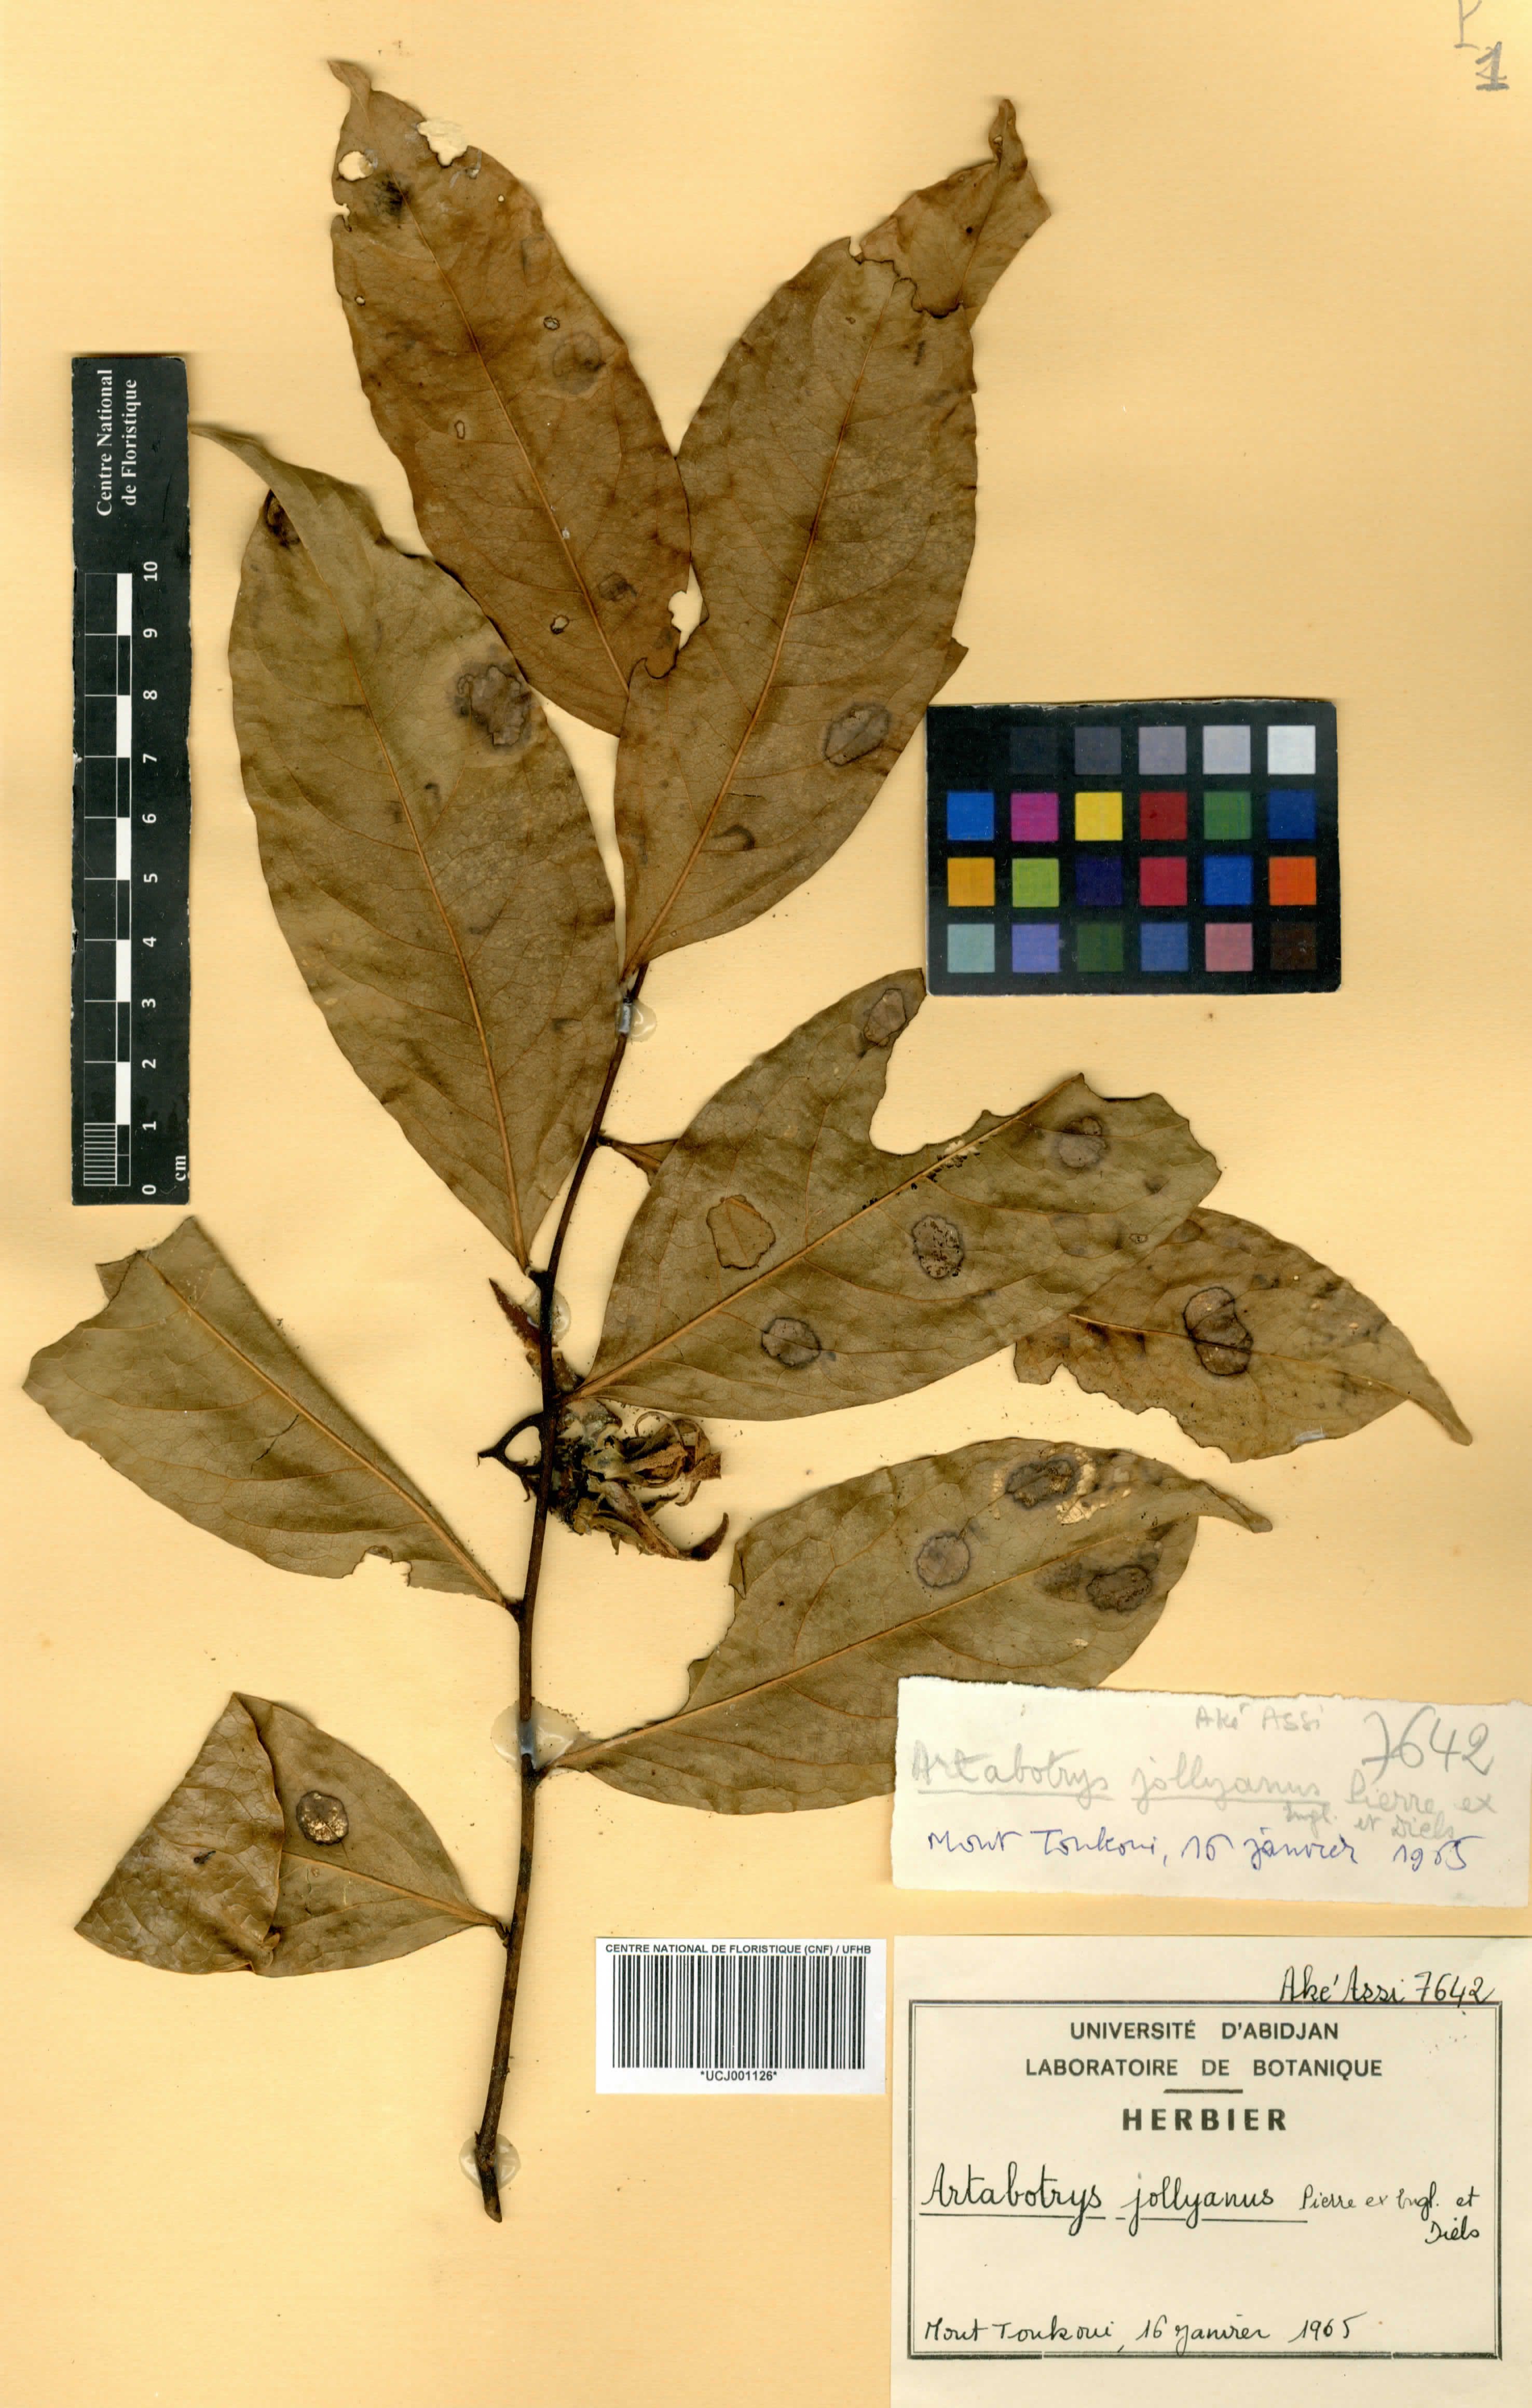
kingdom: Plantae
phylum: Tracheophyta
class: Magnoliopsida
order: Magnoliales
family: Annonaceae
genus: Artabotrys
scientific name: Artabotrys jollyanus
